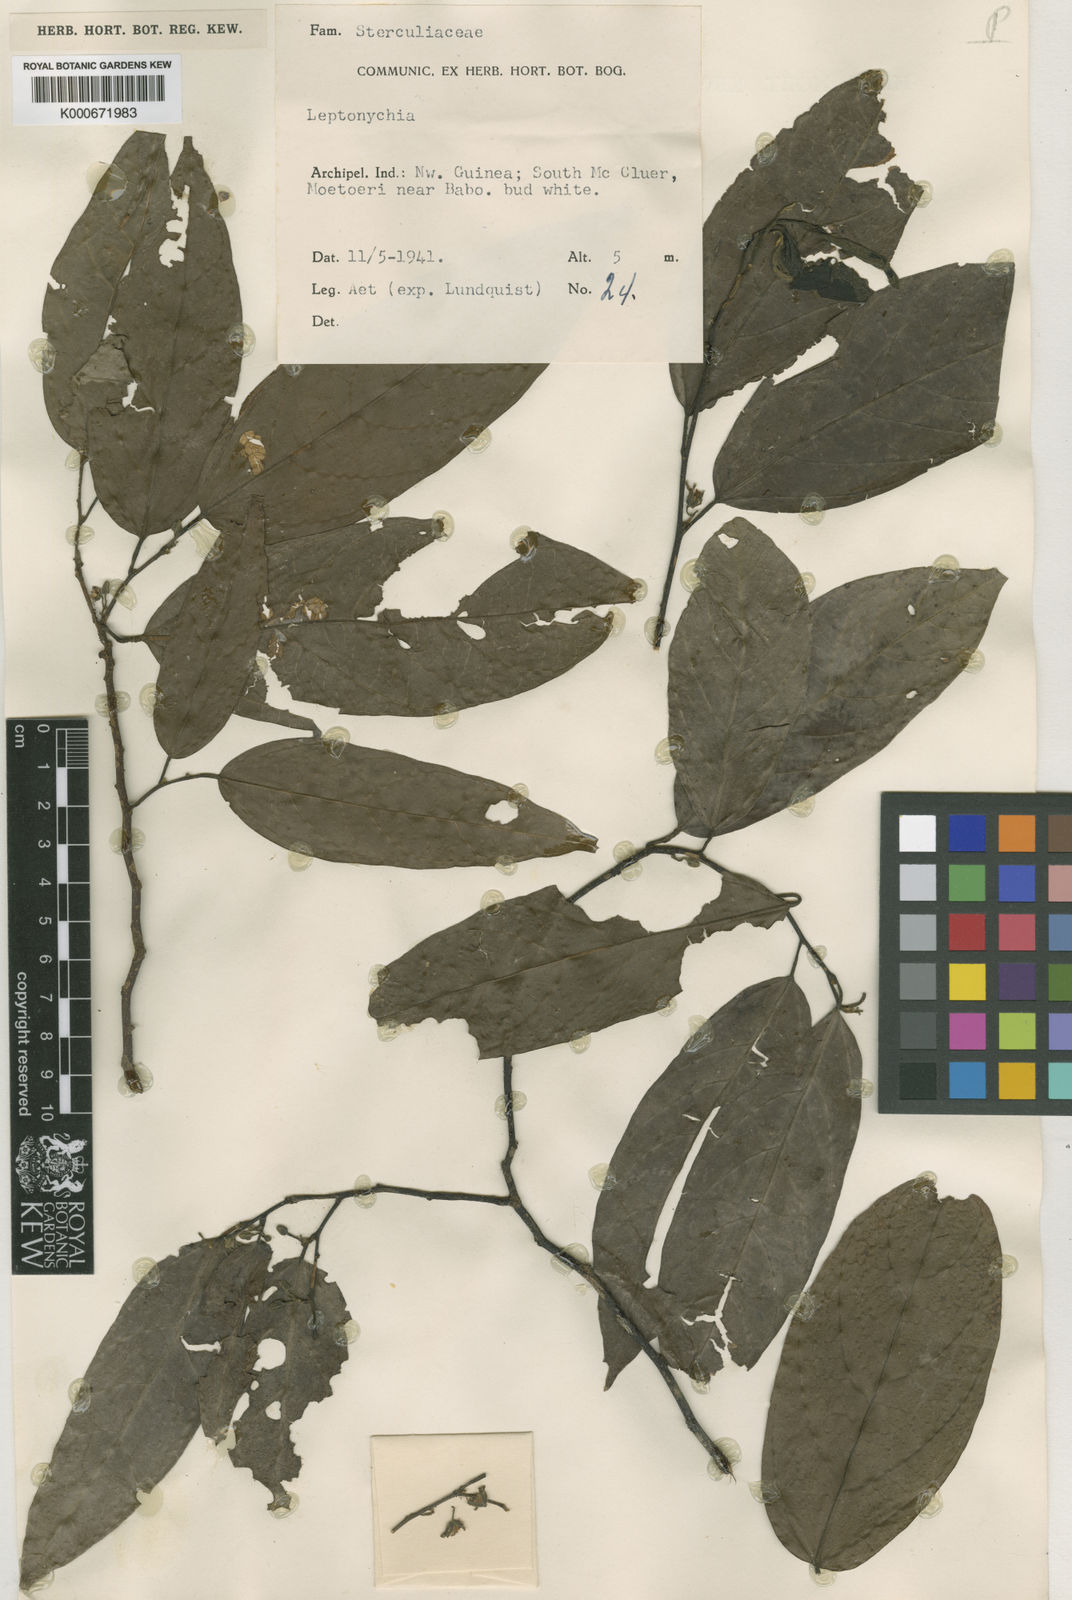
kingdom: Plantae
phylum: Tracheophyta
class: Magnoliopsida
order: Malvales
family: Malvaceae
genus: Leptonychia
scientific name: Leptonychia banahaensis
